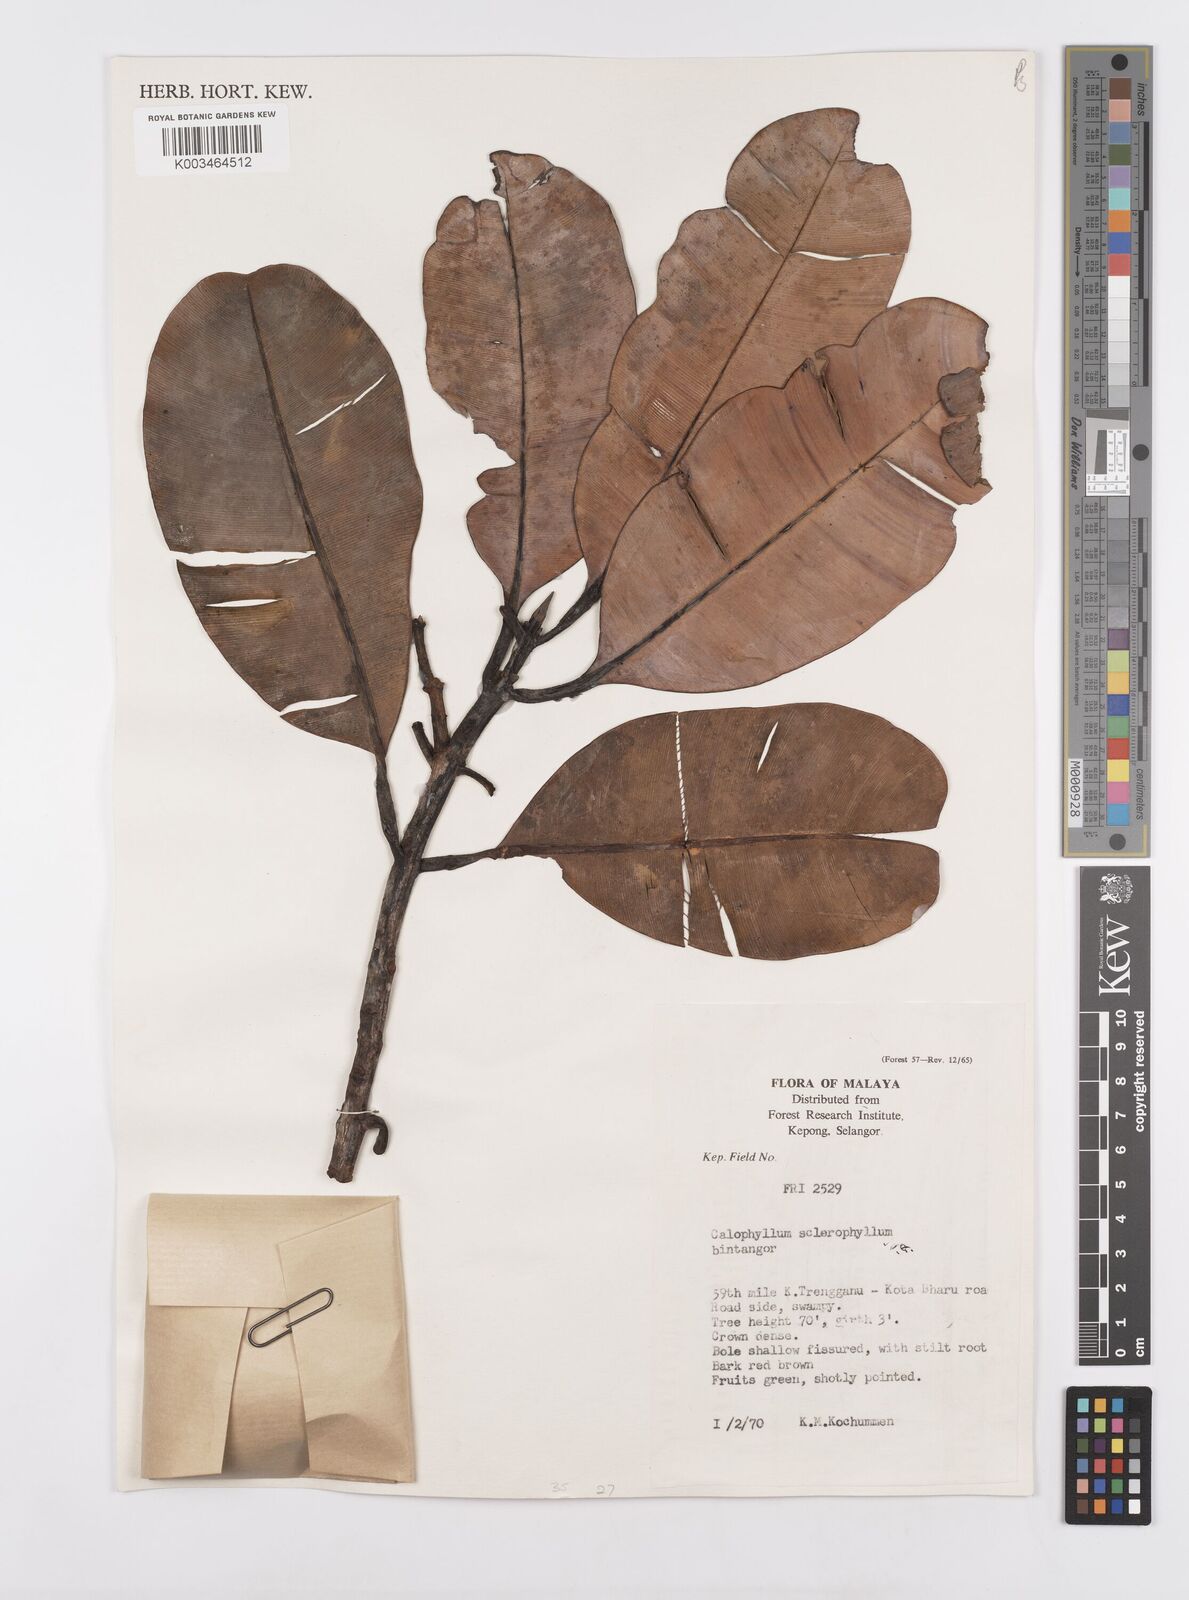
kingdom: Plantae
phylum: Tracheophyta
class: Magnoliopsida
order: Malpighiales
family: Calophyllaceae
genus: Calophyllum
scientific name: Calophyllum sclerophyllum
